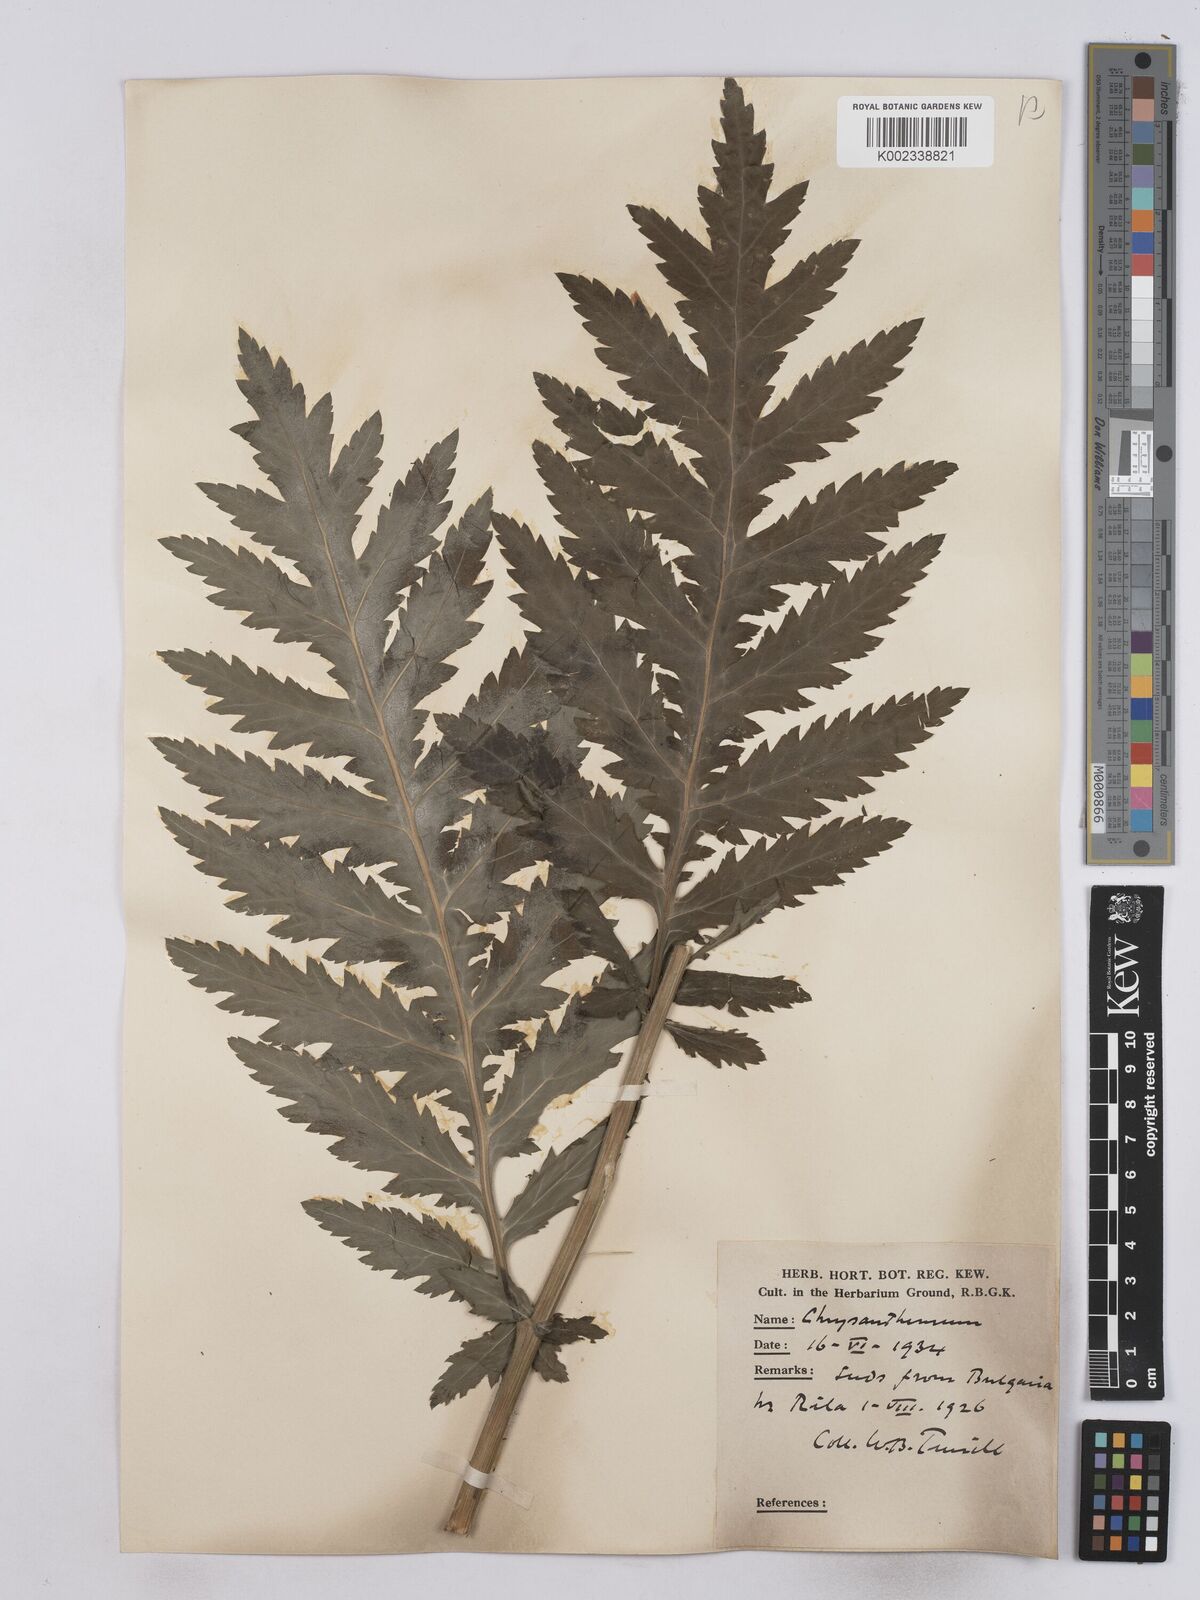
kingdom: Plantae
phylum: Tracheophyta
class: Magnoliopsida
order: Asterales
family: Asteraceae
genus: Tanacetum
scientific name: Tanacetum macrophyllum
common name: Rayed tansy
